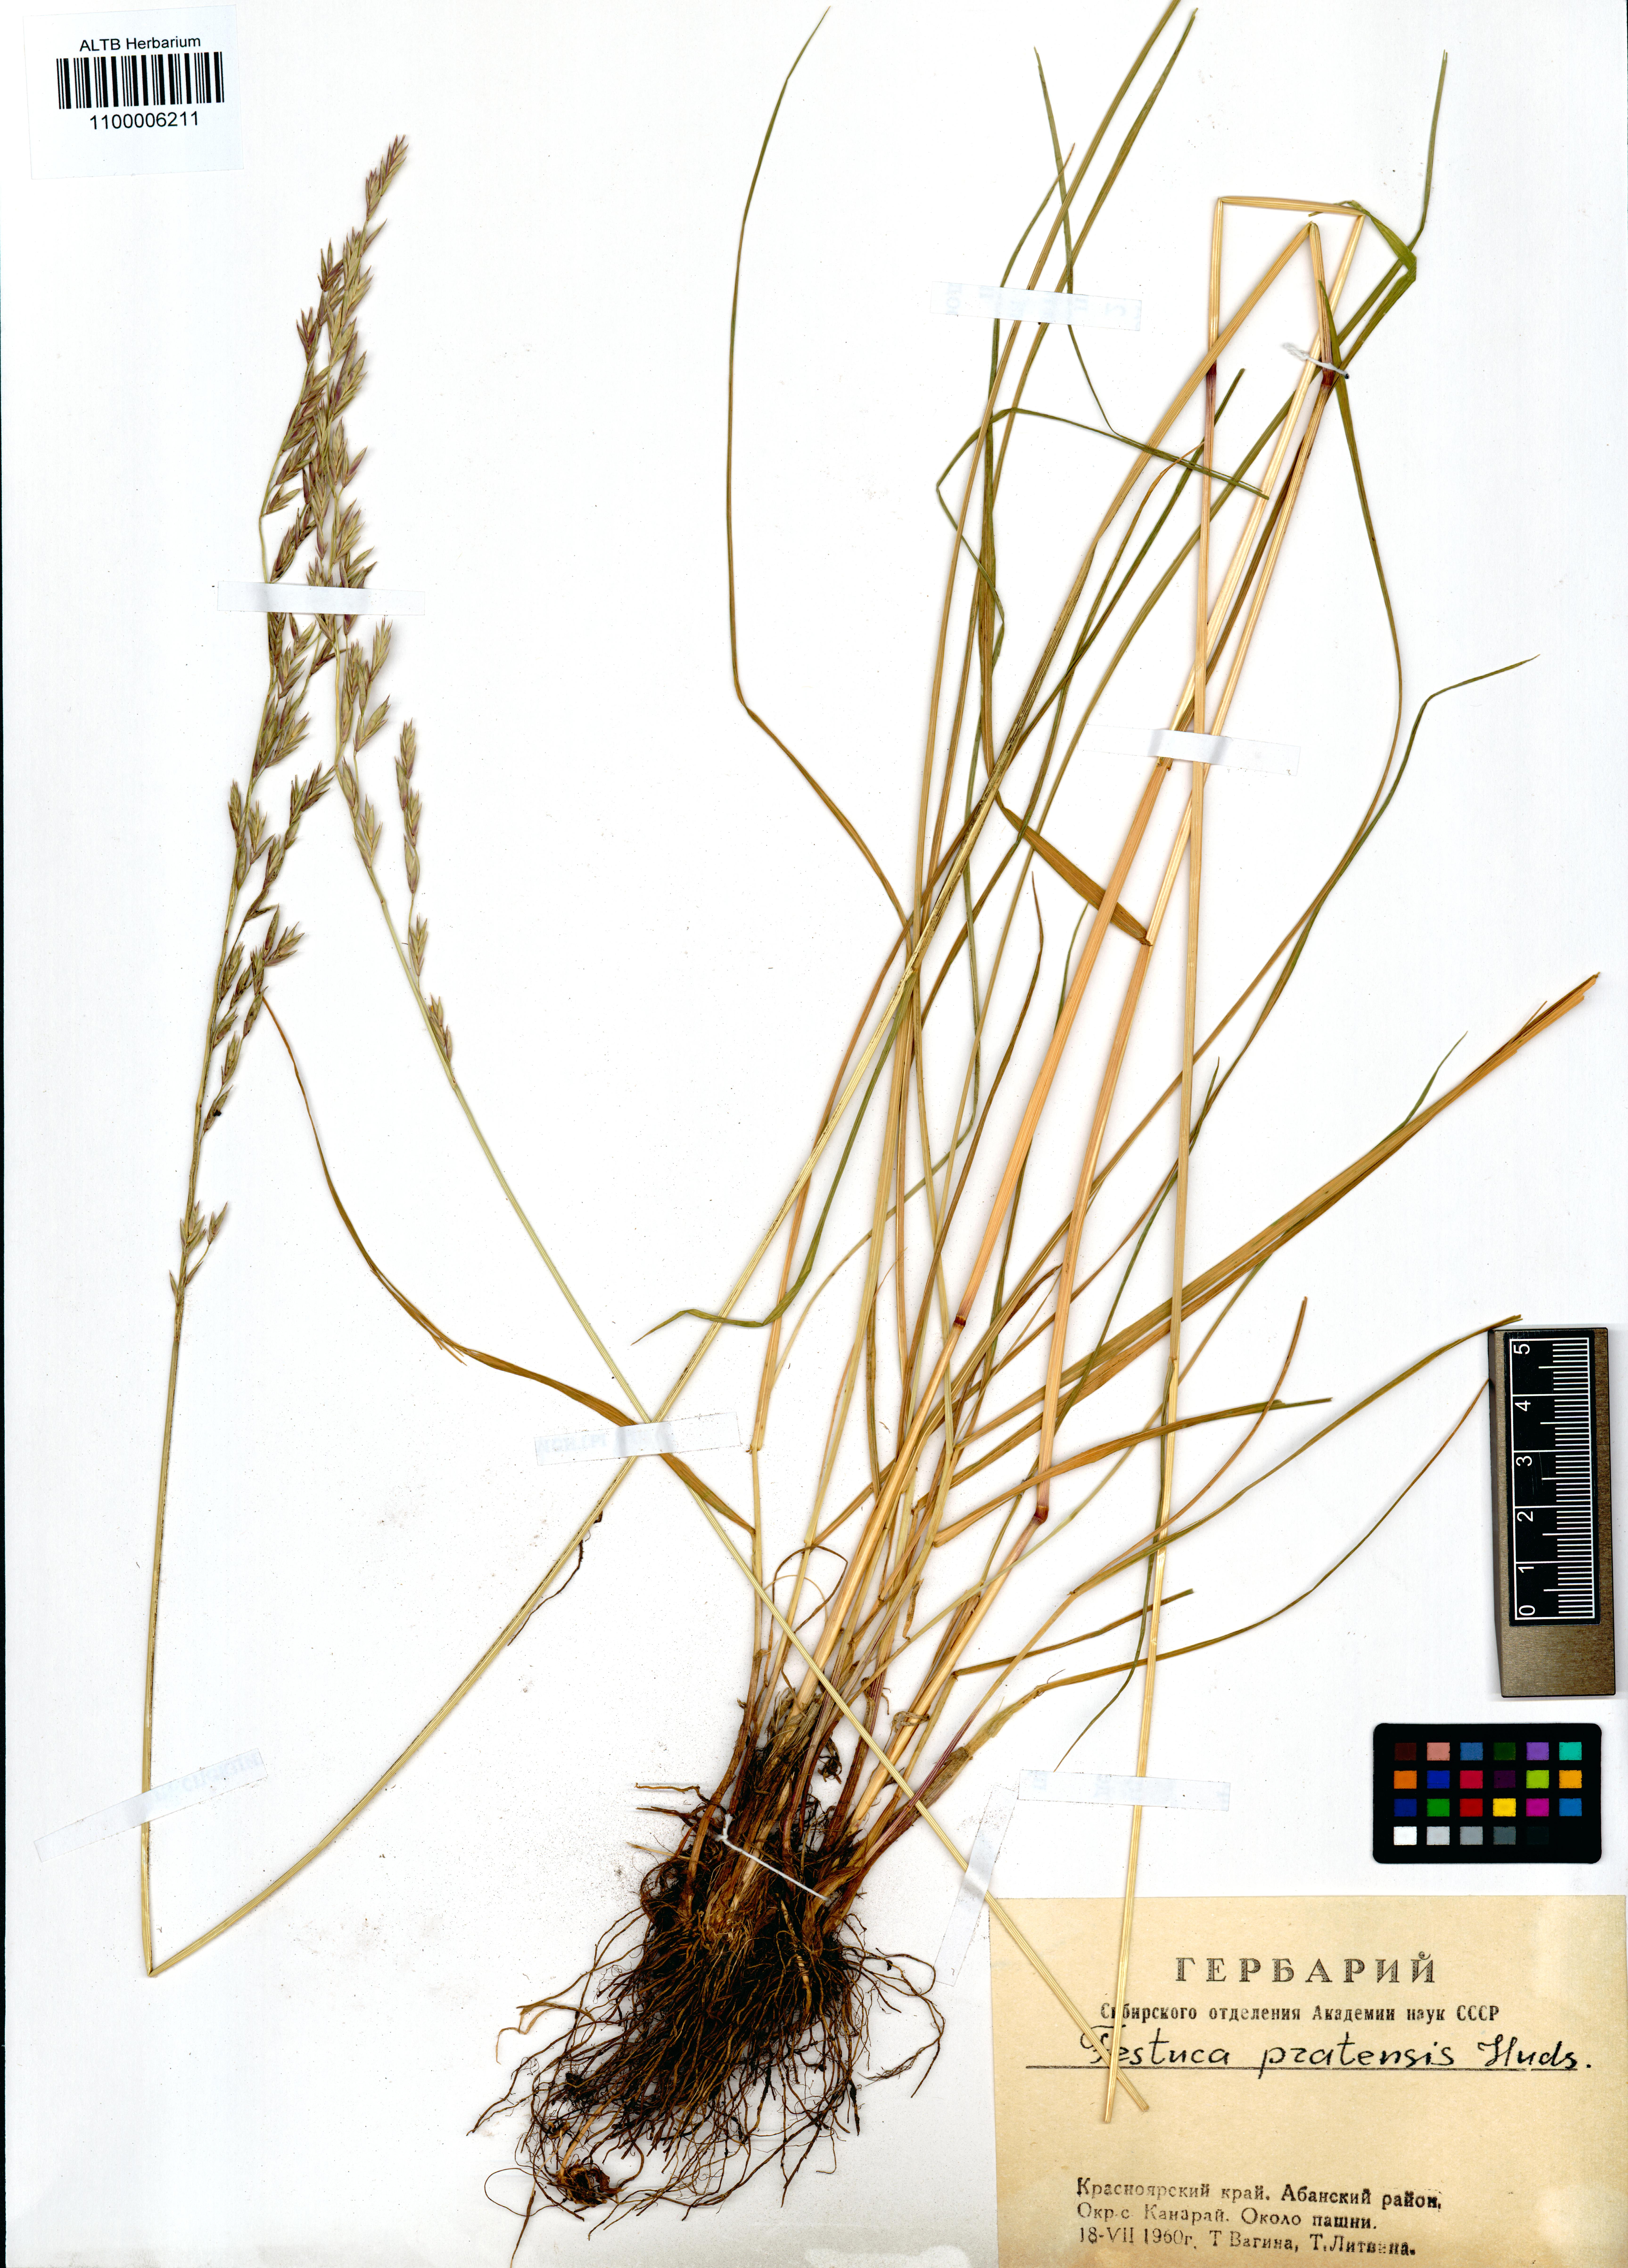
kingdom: Plantae
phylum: Tracheophyta
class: Liliopsida
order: Poales
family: Poaceae
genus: Lolium
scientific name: Lolium pratense
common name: Dover grass
